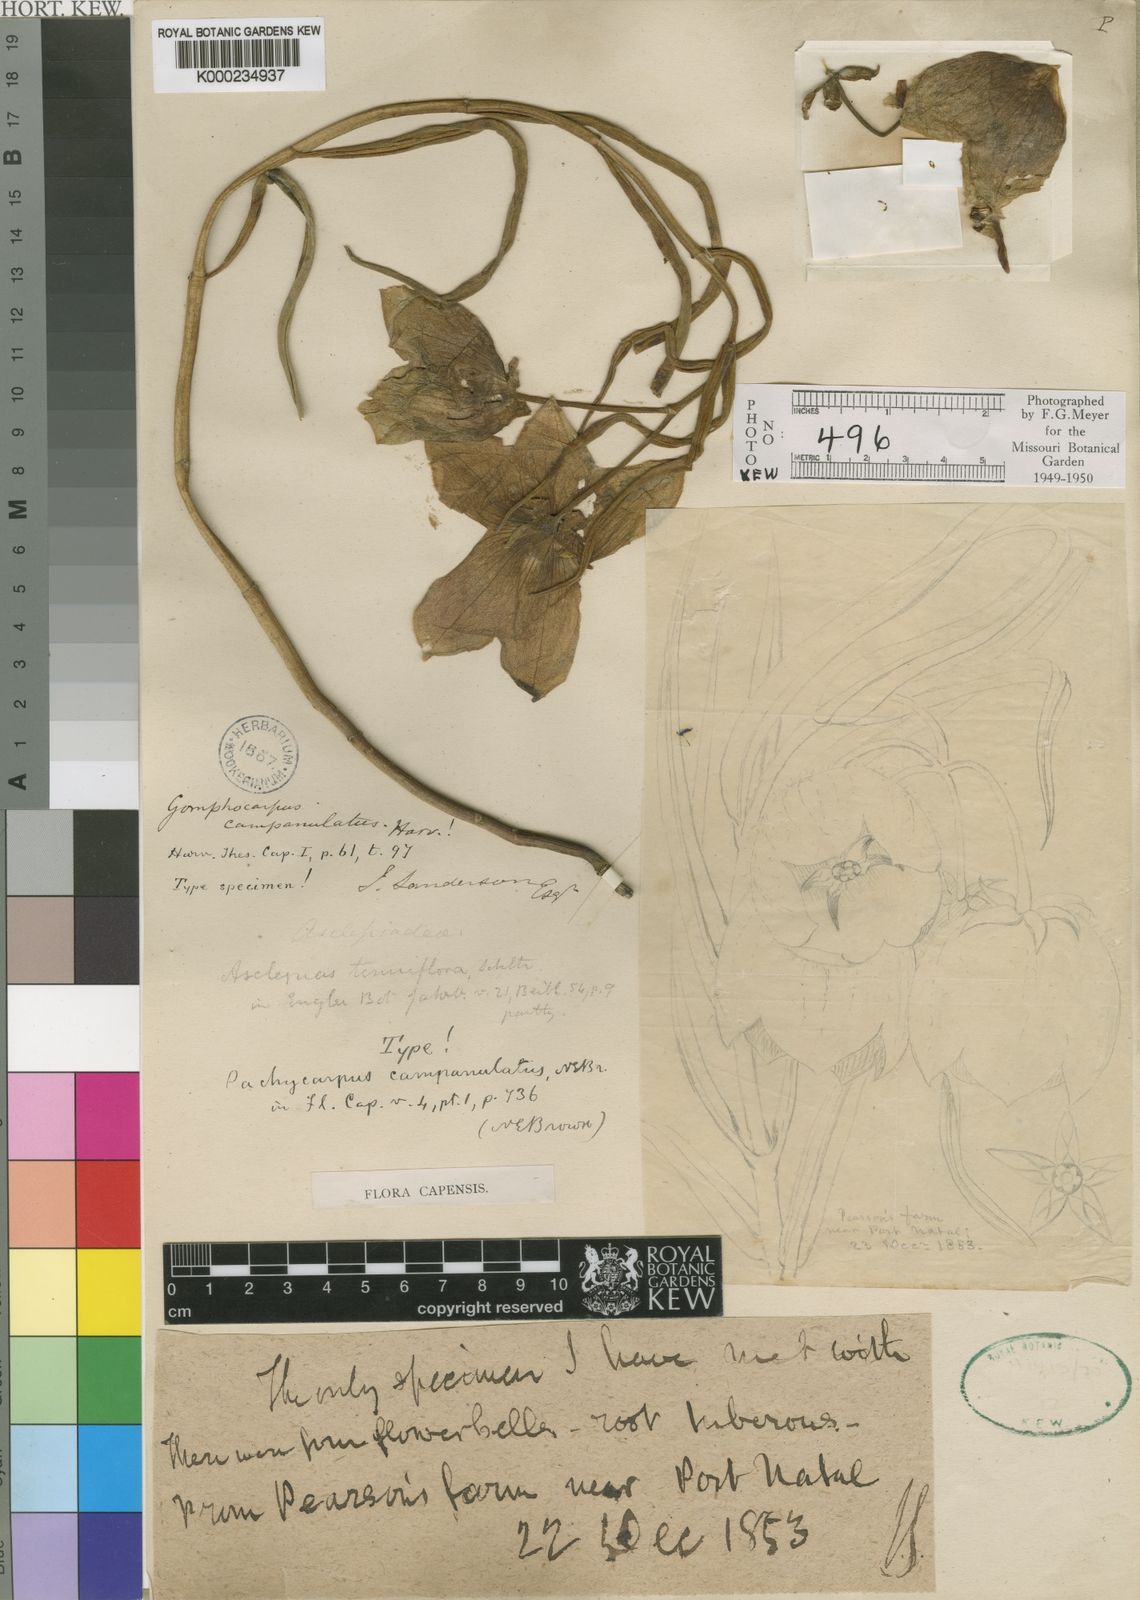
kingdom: Plantae
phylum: Tracheophyta
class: Magnoliopsida
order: Gentianales
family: Apocynaceae
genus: Pachycarpus
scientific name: Pachycarpus campanulatus
